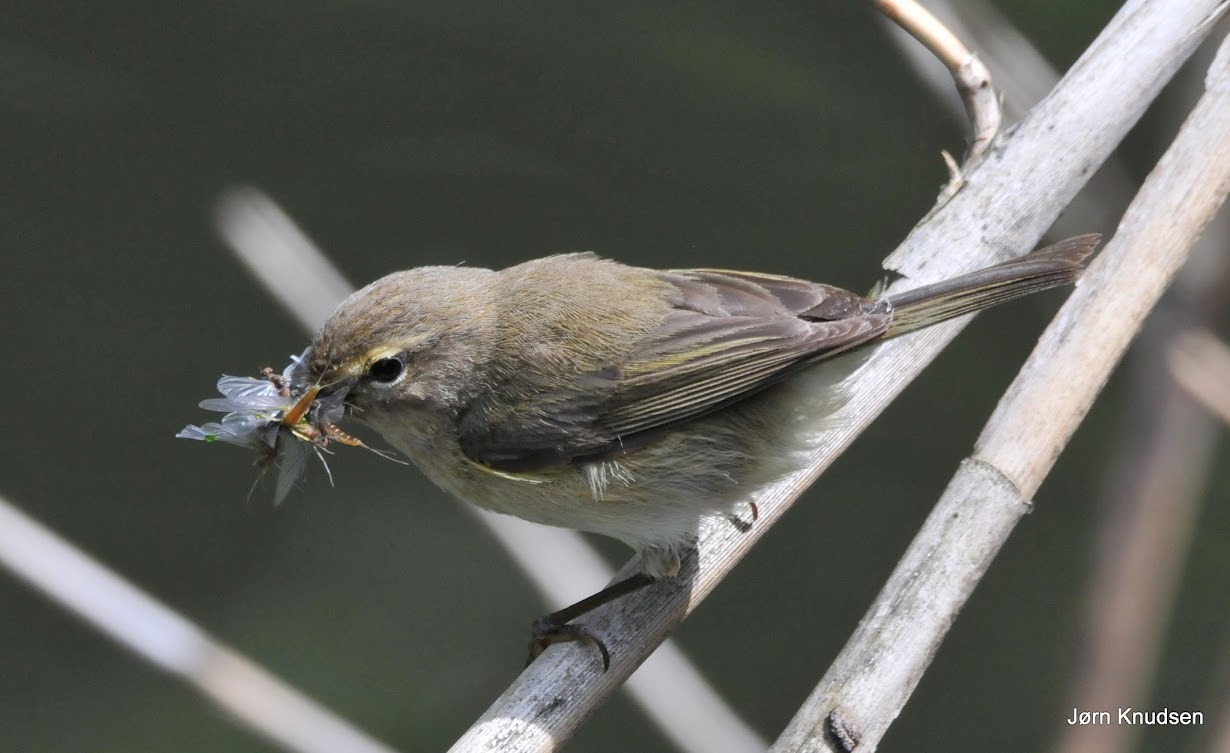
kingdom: Animalia
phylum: Chordata
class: Aves
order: Passeriformes
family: Phylloscopidae
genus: Phylloscopus
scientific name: Phylloscopus trochilus
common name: Løvsanger
